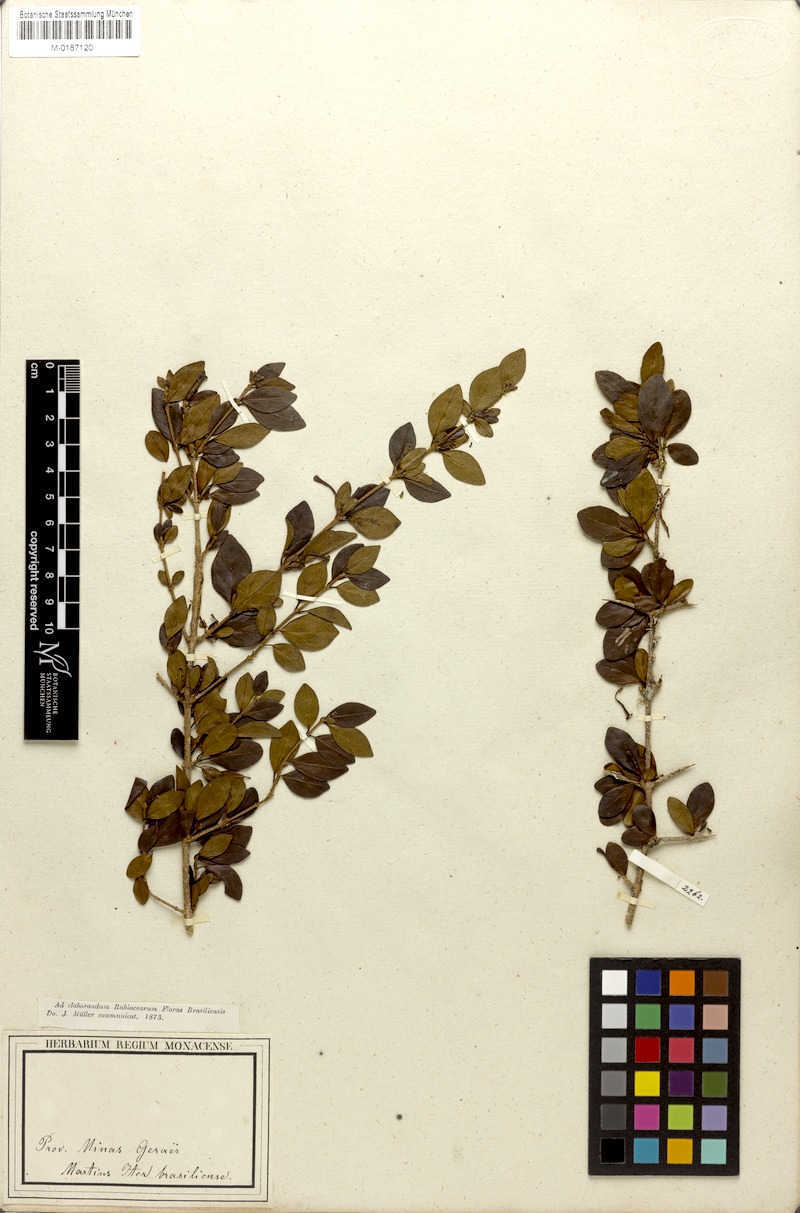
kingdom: Plantae
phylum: Tracheophyta
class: Magnoliopsida
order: Gentianales
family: Rubiaceae
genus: Chomelia
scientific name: Chomelia obtusa
